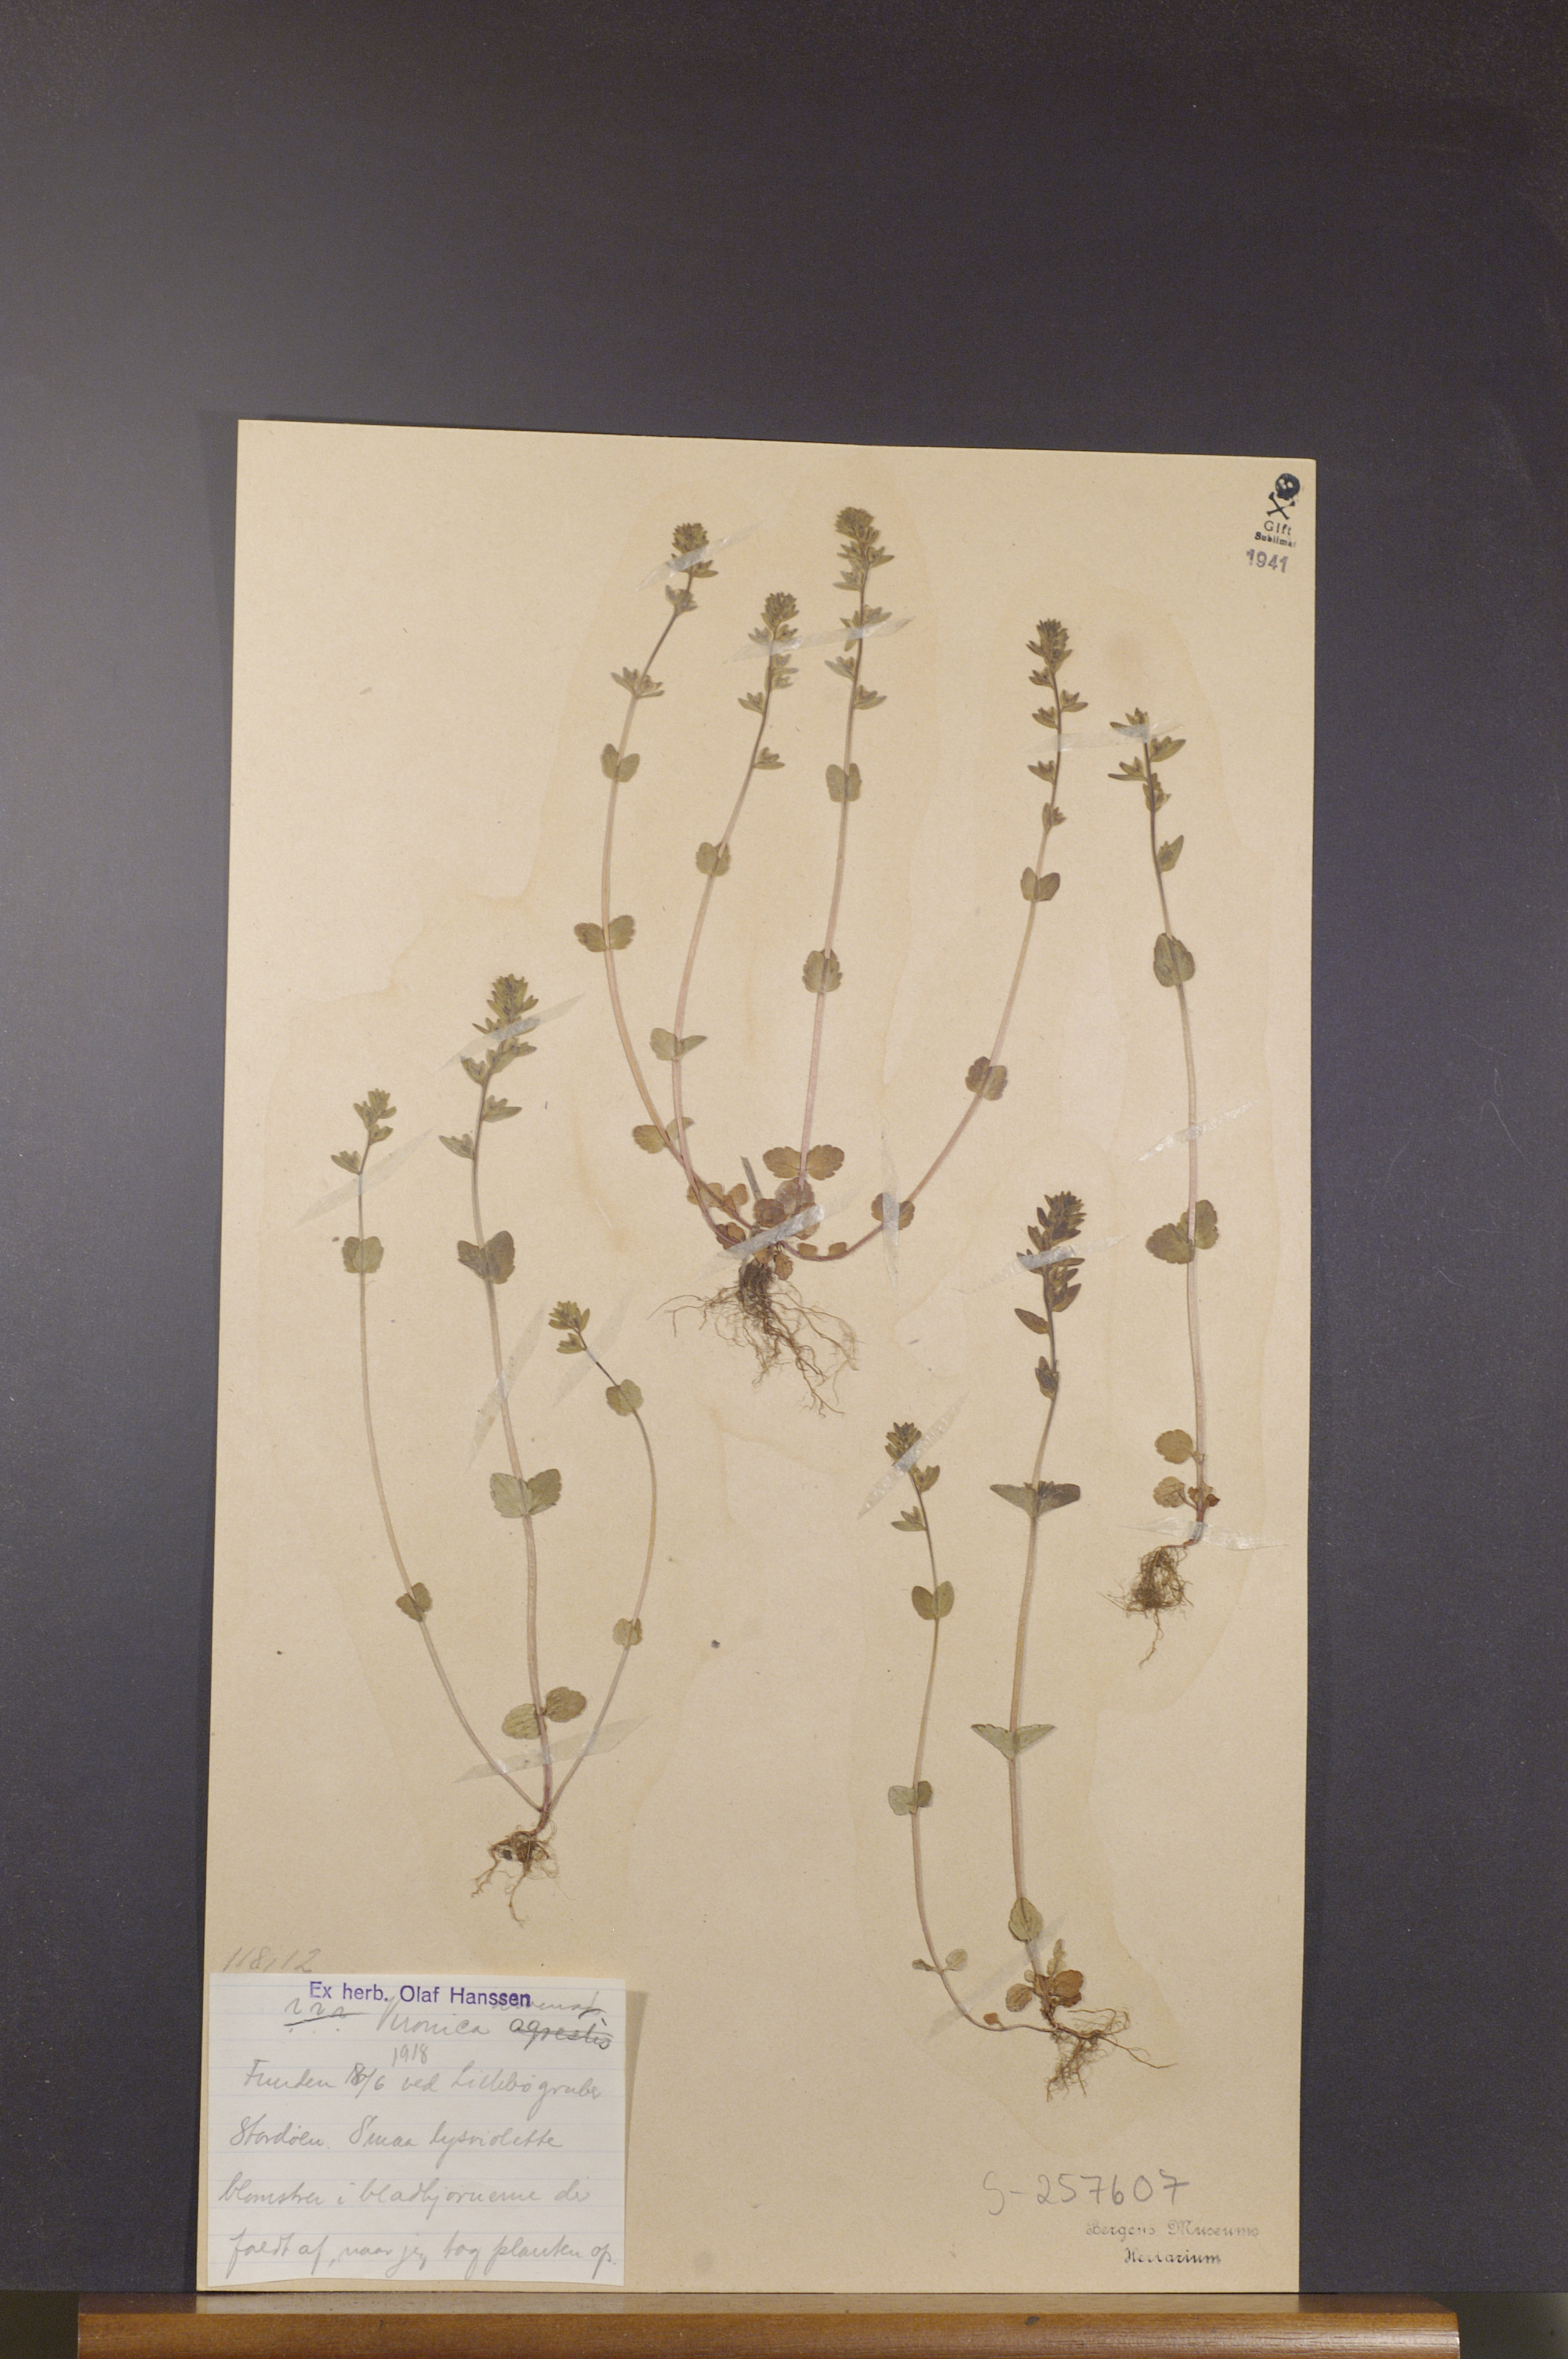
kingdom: Plantae
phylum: Tracheophyta
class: Magnoliopsida
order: Lamiales
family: Plantaginaceae
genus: Veronica
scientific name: Veronica arvensis
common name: Corn speedwell
